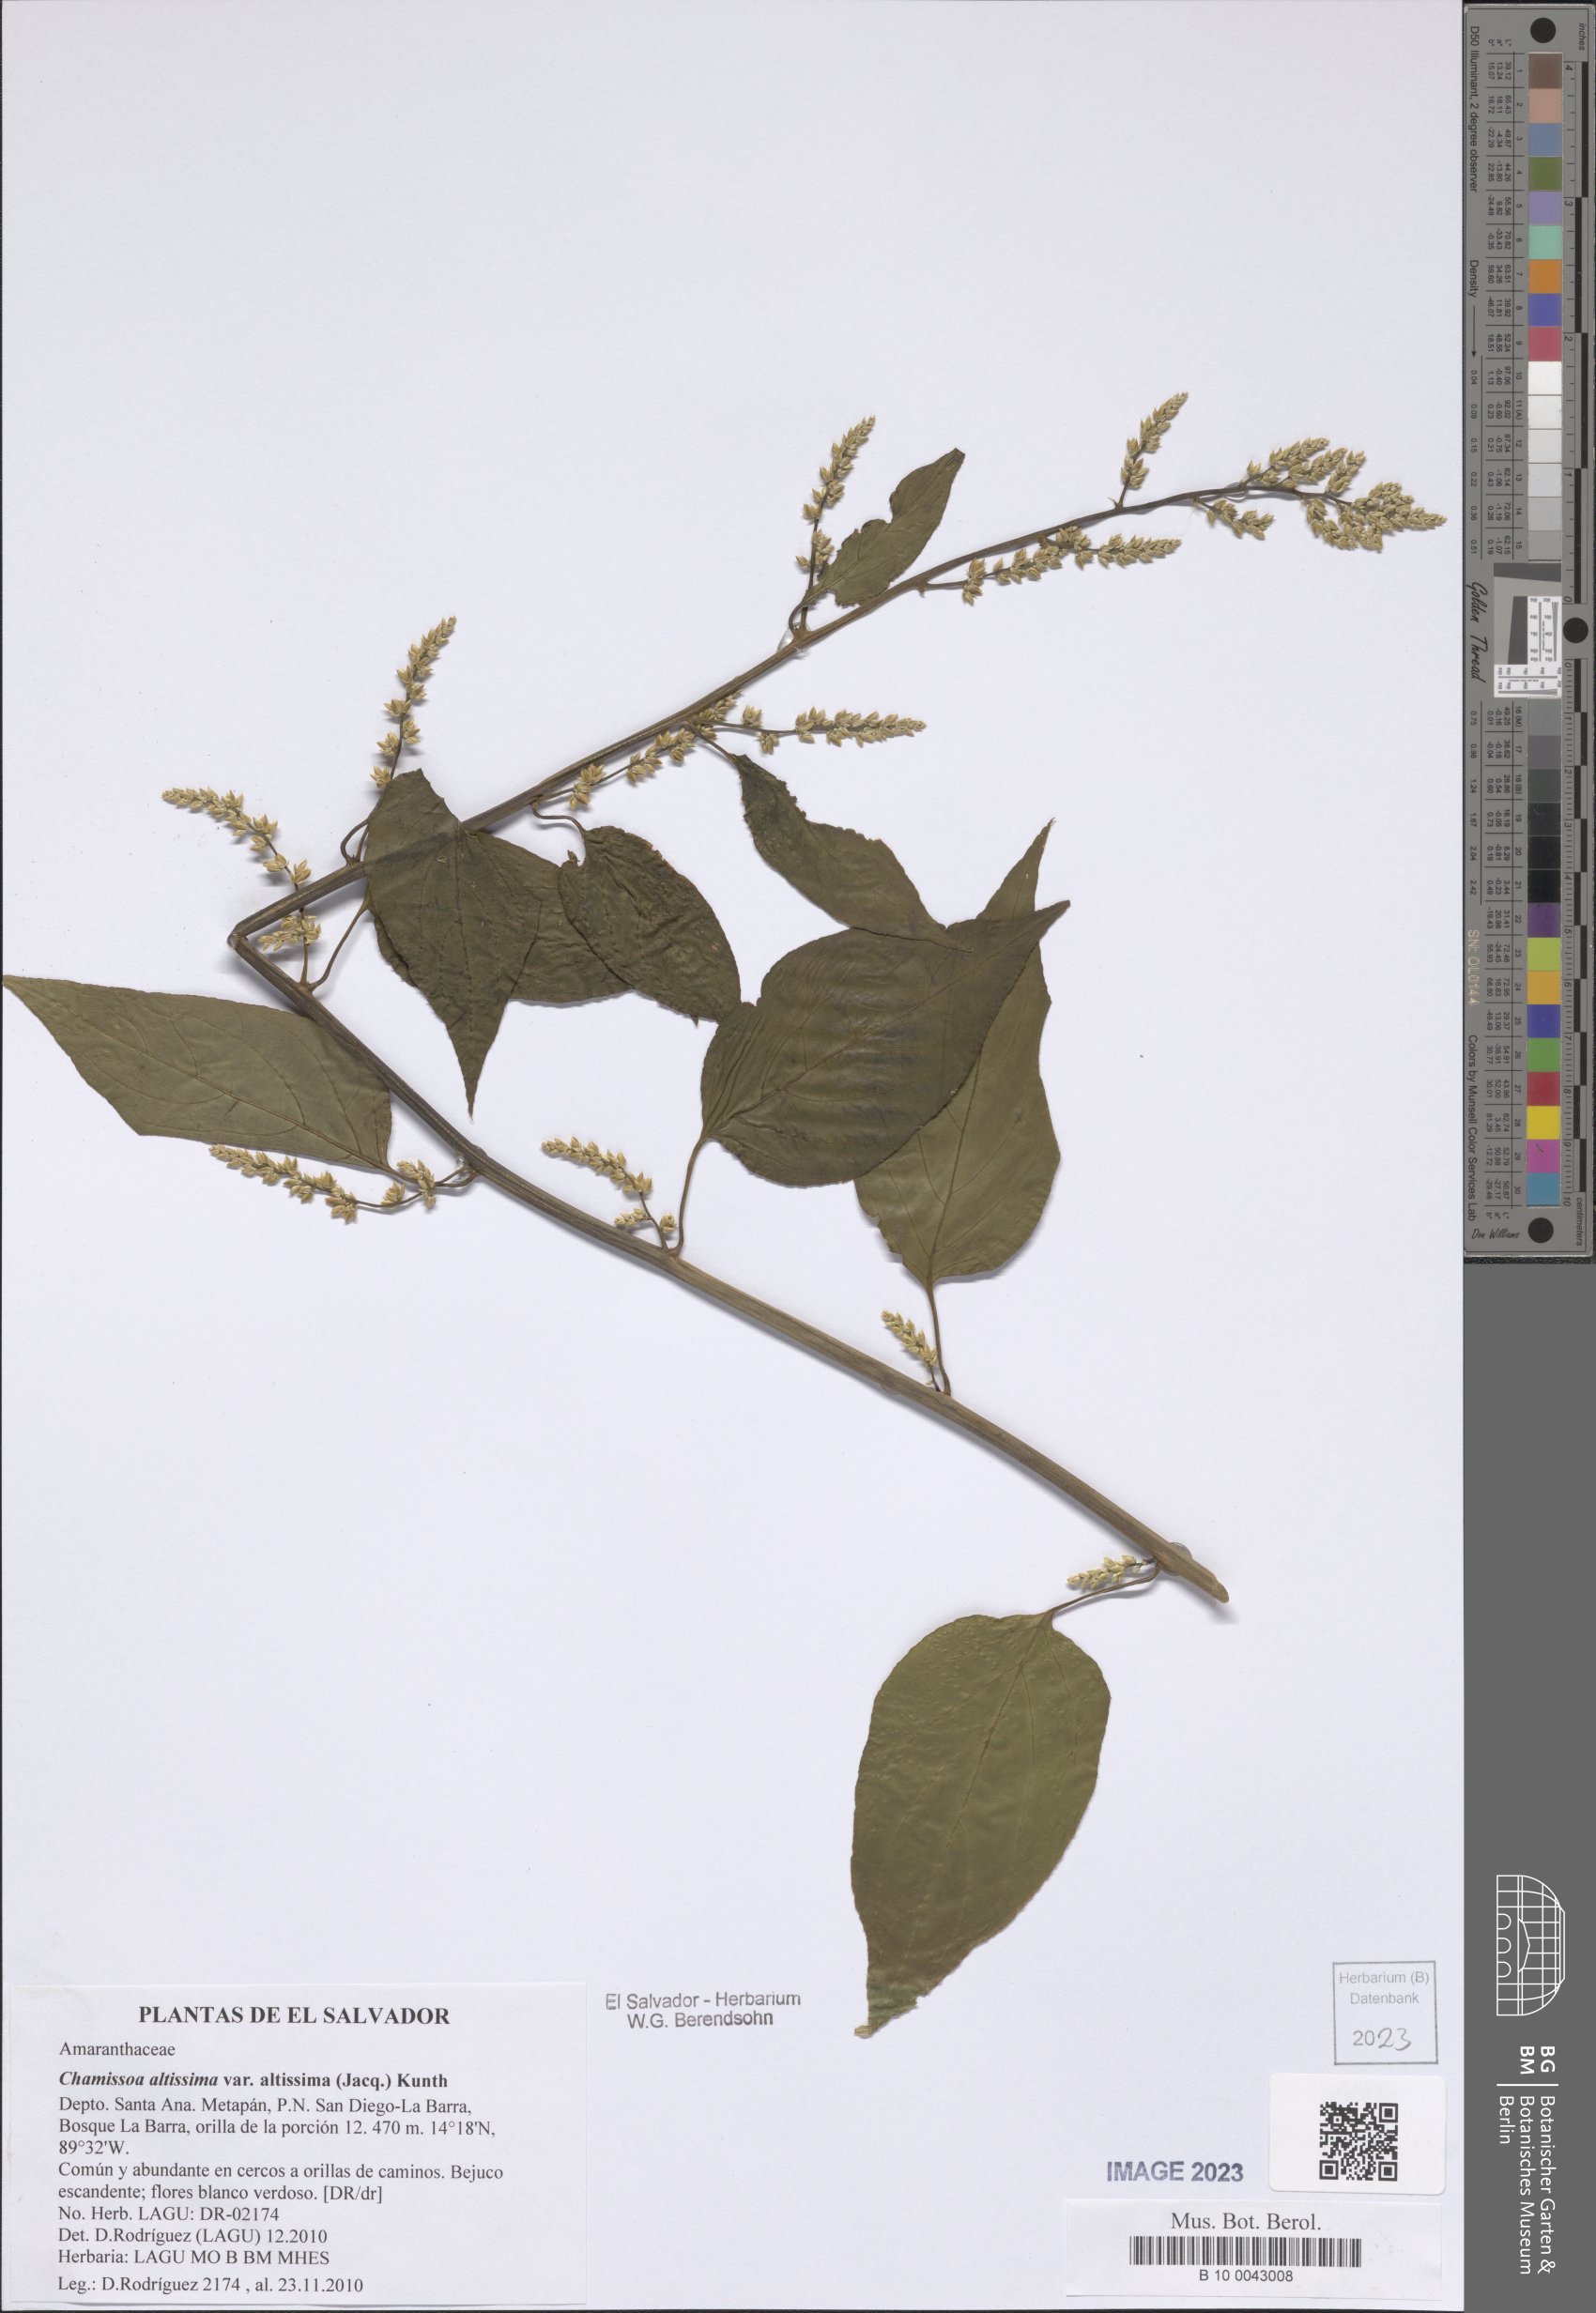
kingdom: Plantae
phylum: Tracheophyta
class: Magnoliopsida
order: Caryophyllales
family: Amaranthaceae
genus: Chamissoa
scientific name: Chamissoa altissima
